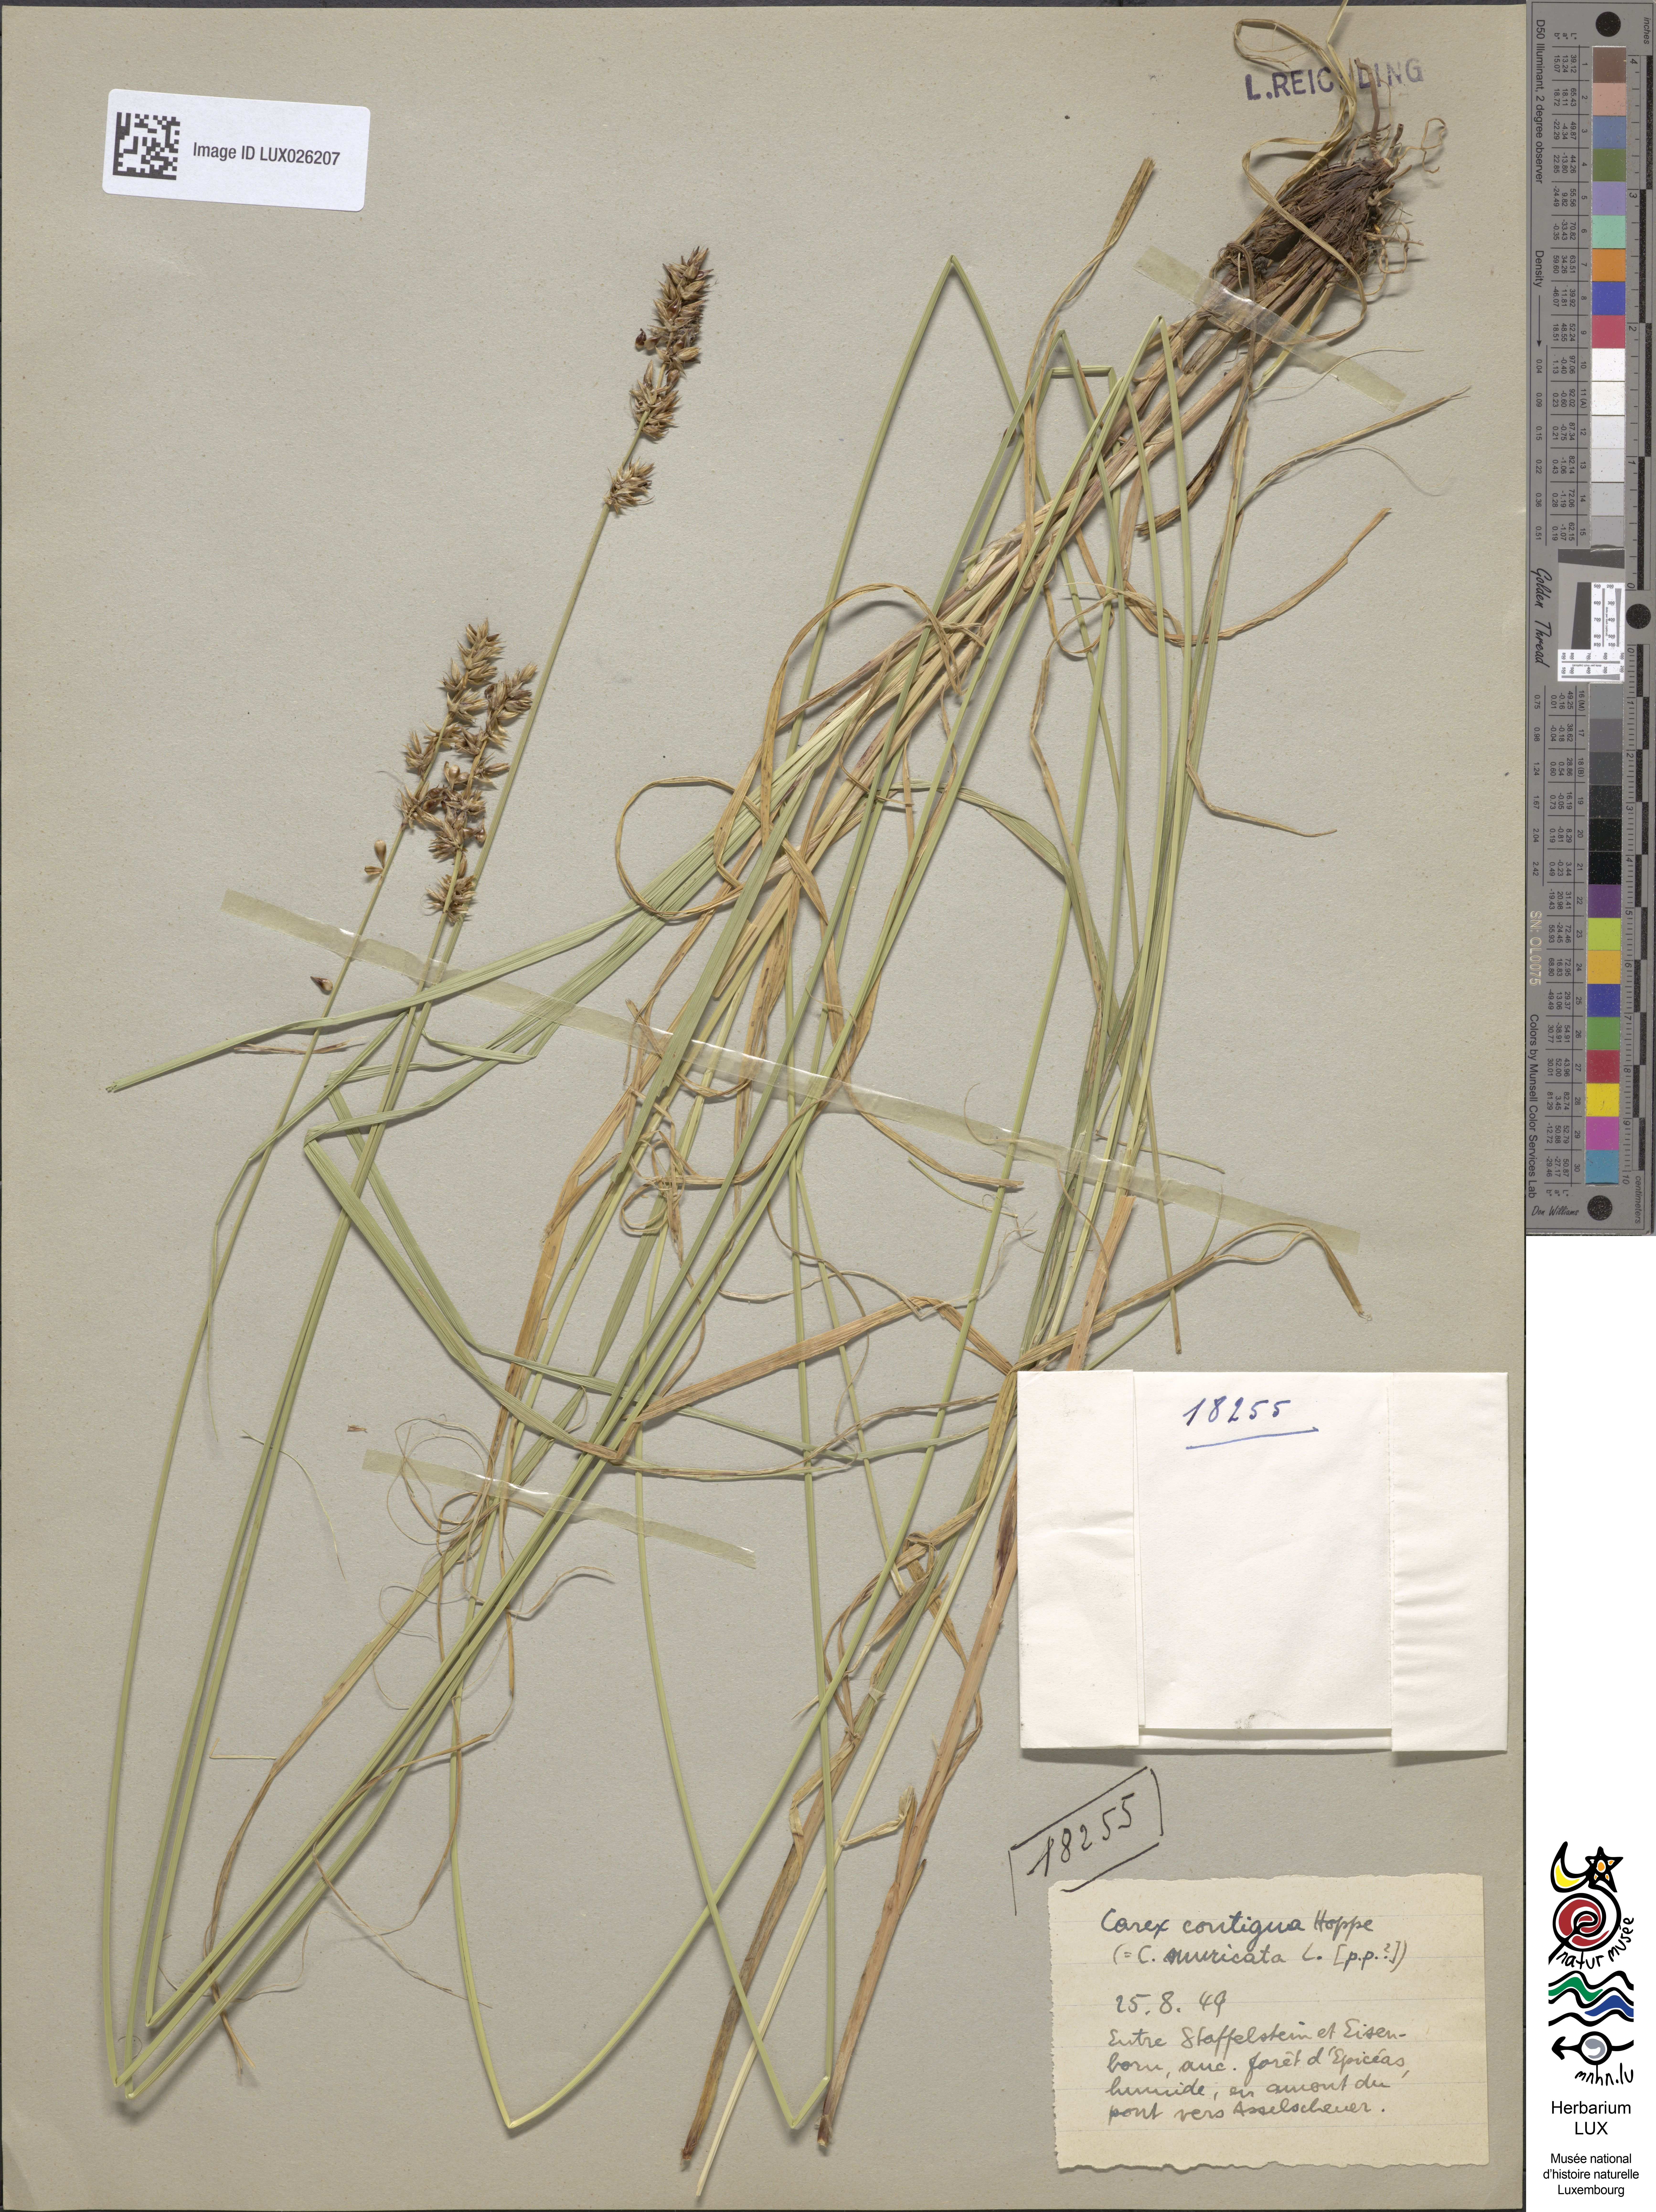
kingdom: Plantae
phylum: Tracheophyta
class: Liliopsida
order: Poales
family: Cyperaceae
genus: Carex
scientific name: Carex spicata
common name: Spiked sedge
